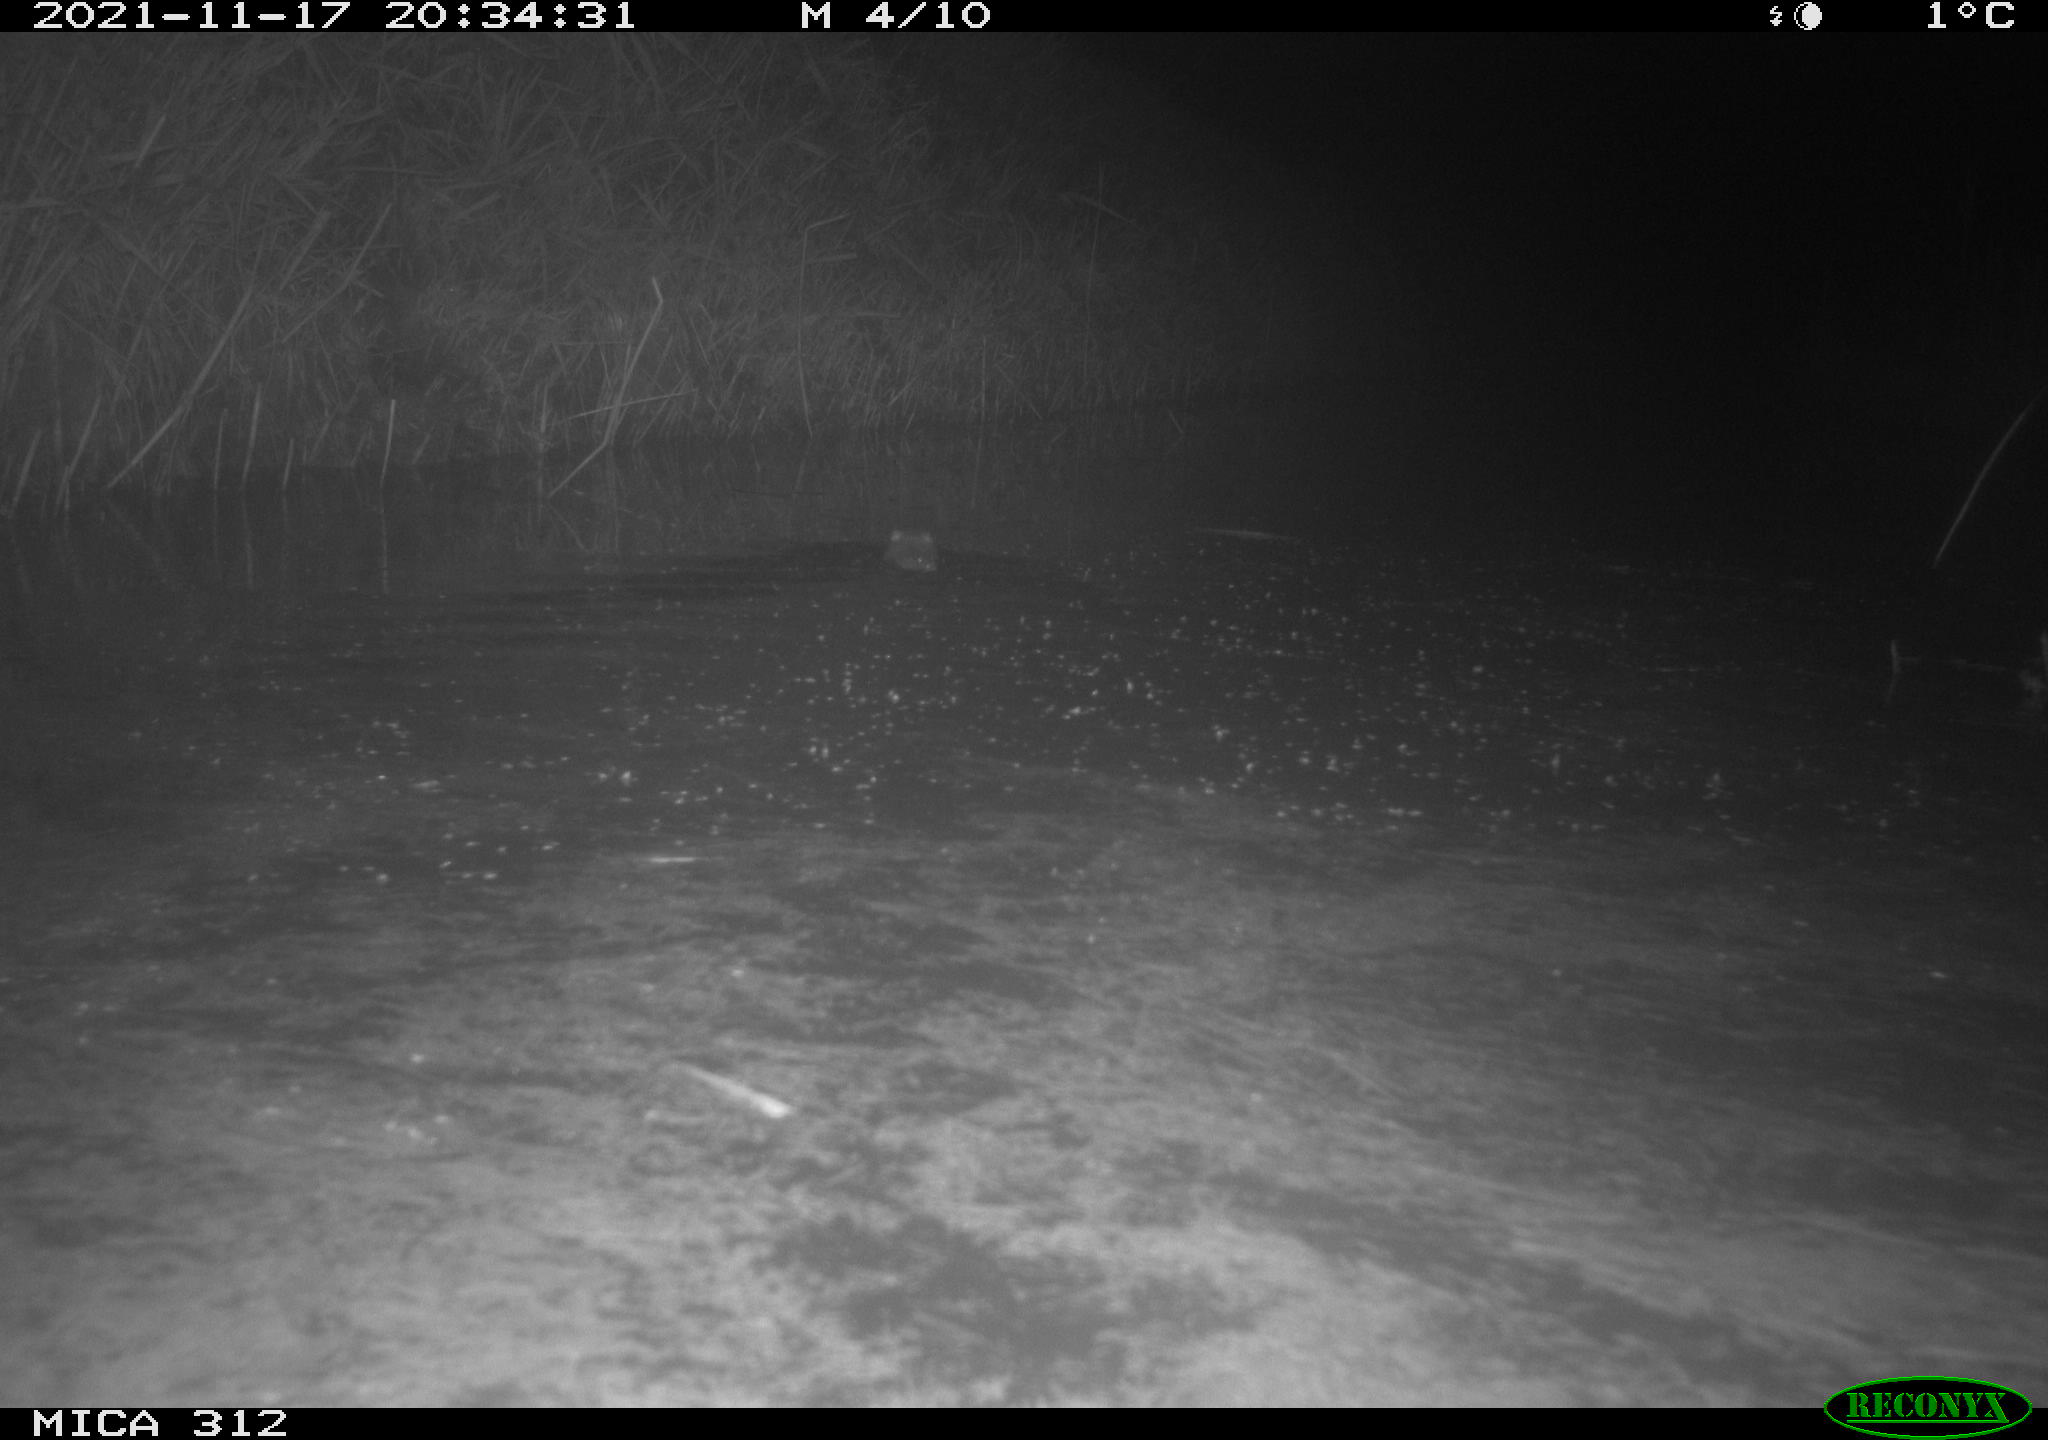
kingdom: Animalia
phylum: Chordata
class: Mammalia
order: Rodentia
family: Muridae
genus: Rattus
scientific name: Rattus norvegicus
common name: Brown rat
